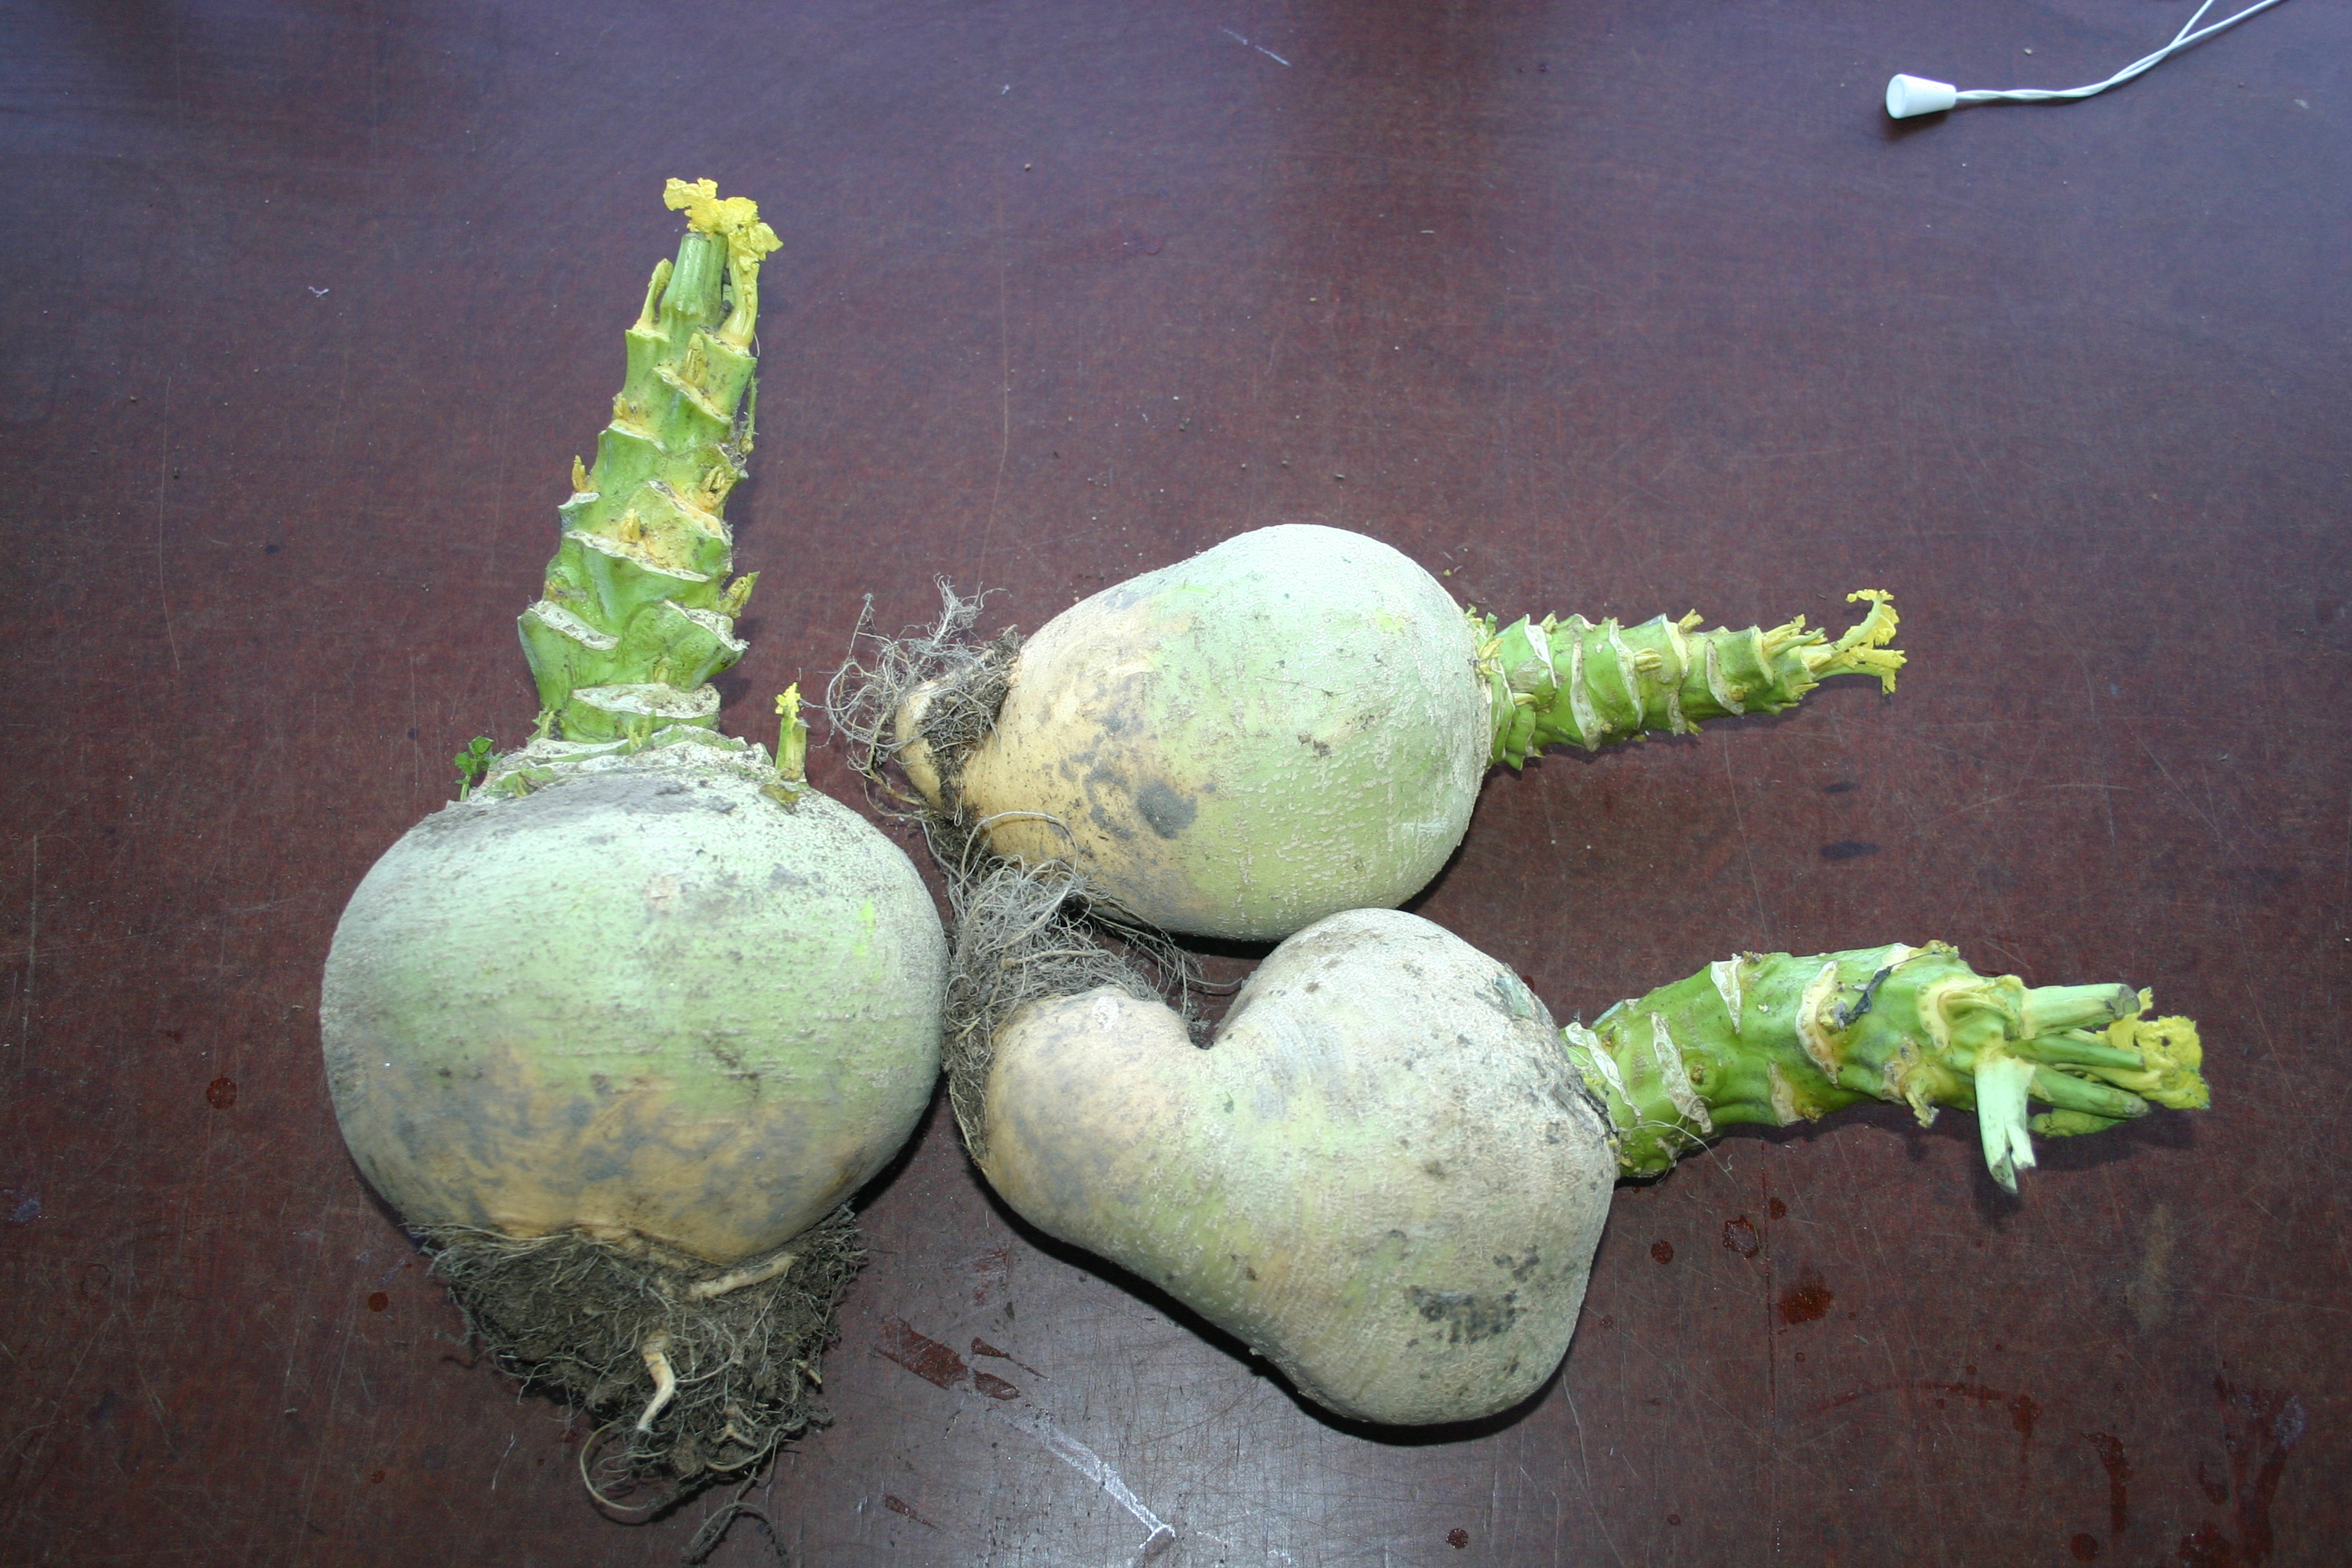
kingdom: Plantae
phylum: Tracheophyta
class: Magnoliopsida
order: Brassicales
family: Brassicaceae
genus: Brassica
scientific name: Brassica napus
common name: Rape
